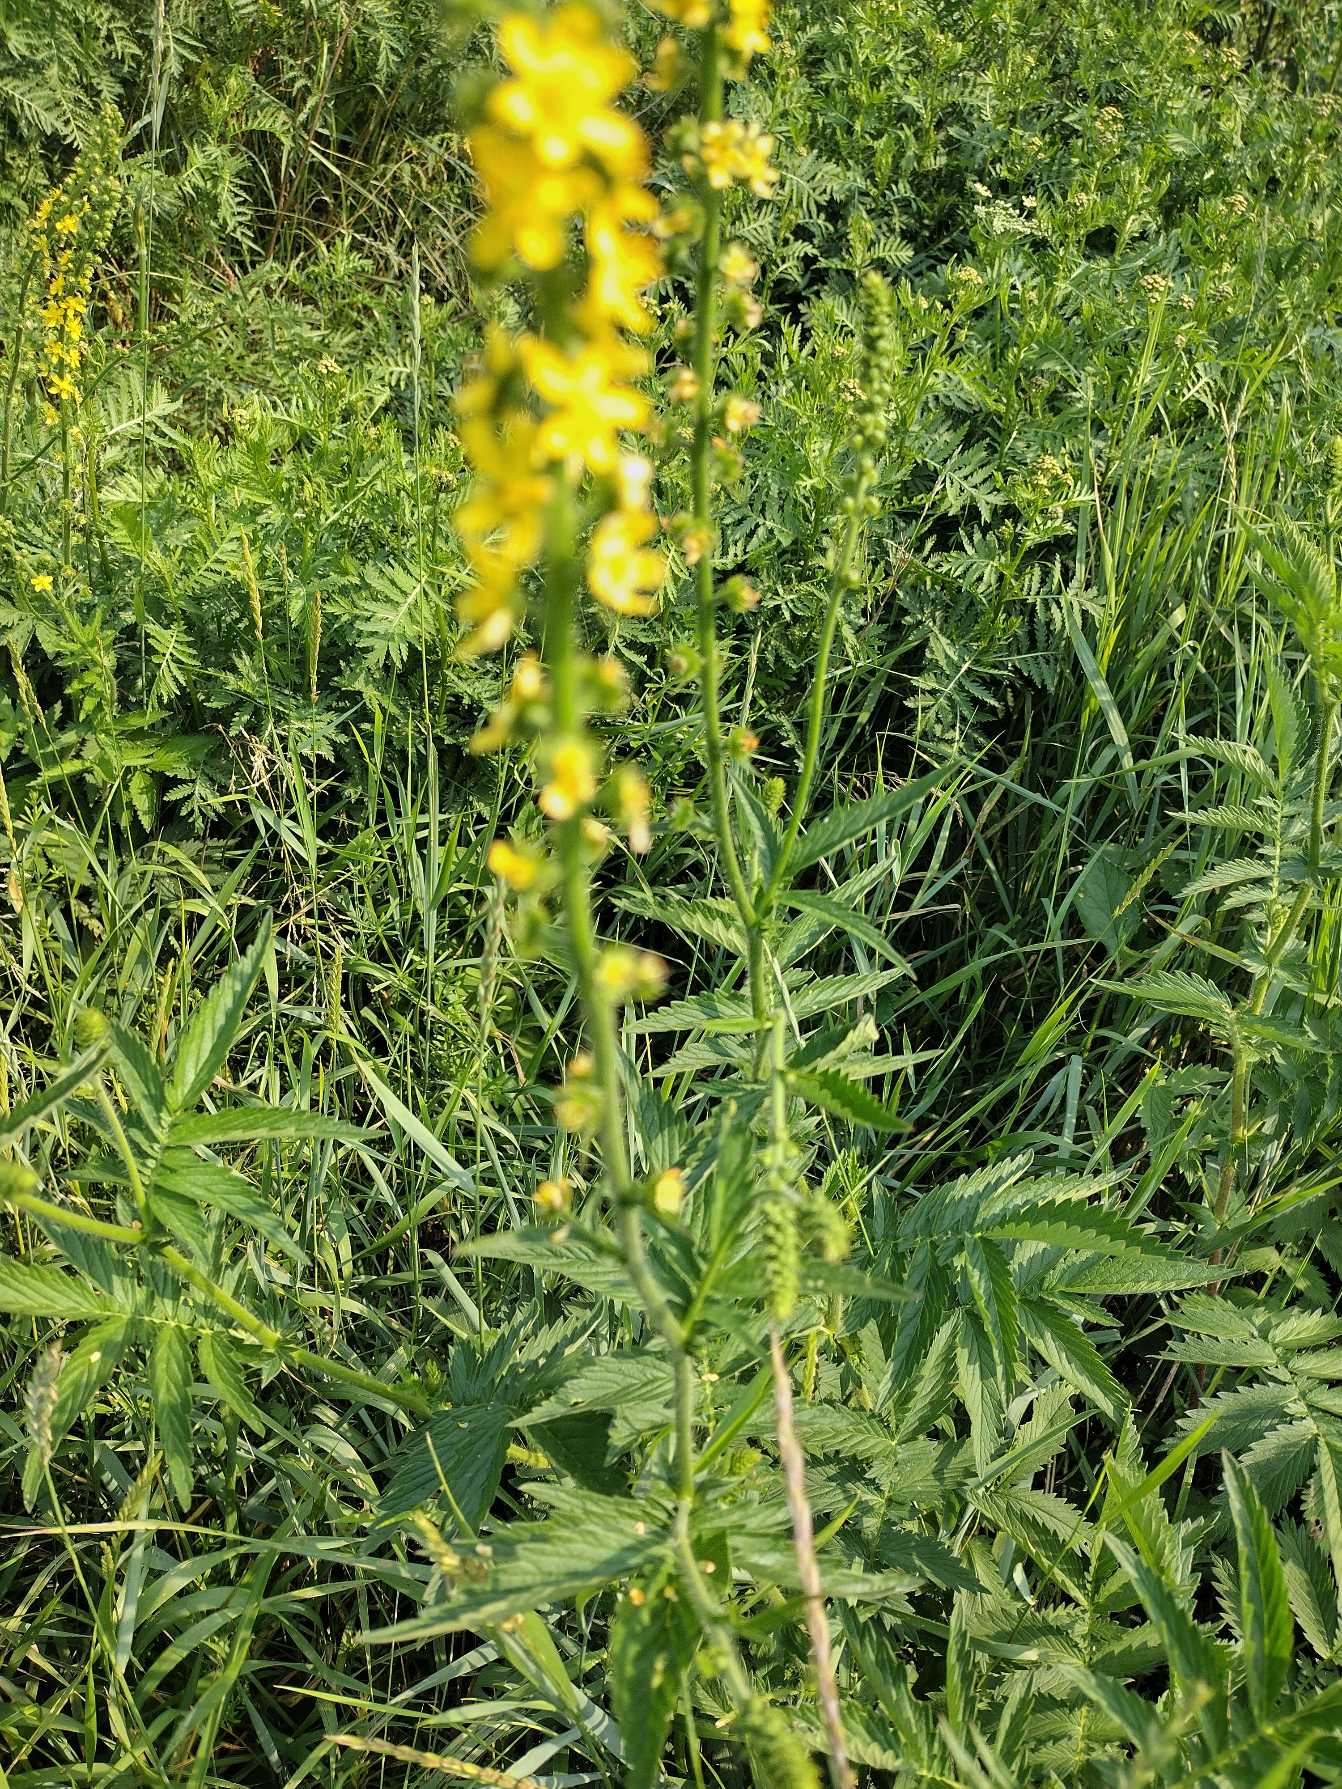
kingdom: Plantae
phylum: Tracheophyta
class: Magnoliopsida
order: Rosales
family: Rosaceae
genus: Agrimonia
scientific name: Agrimonia procera
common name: Vellugtende agermåne
